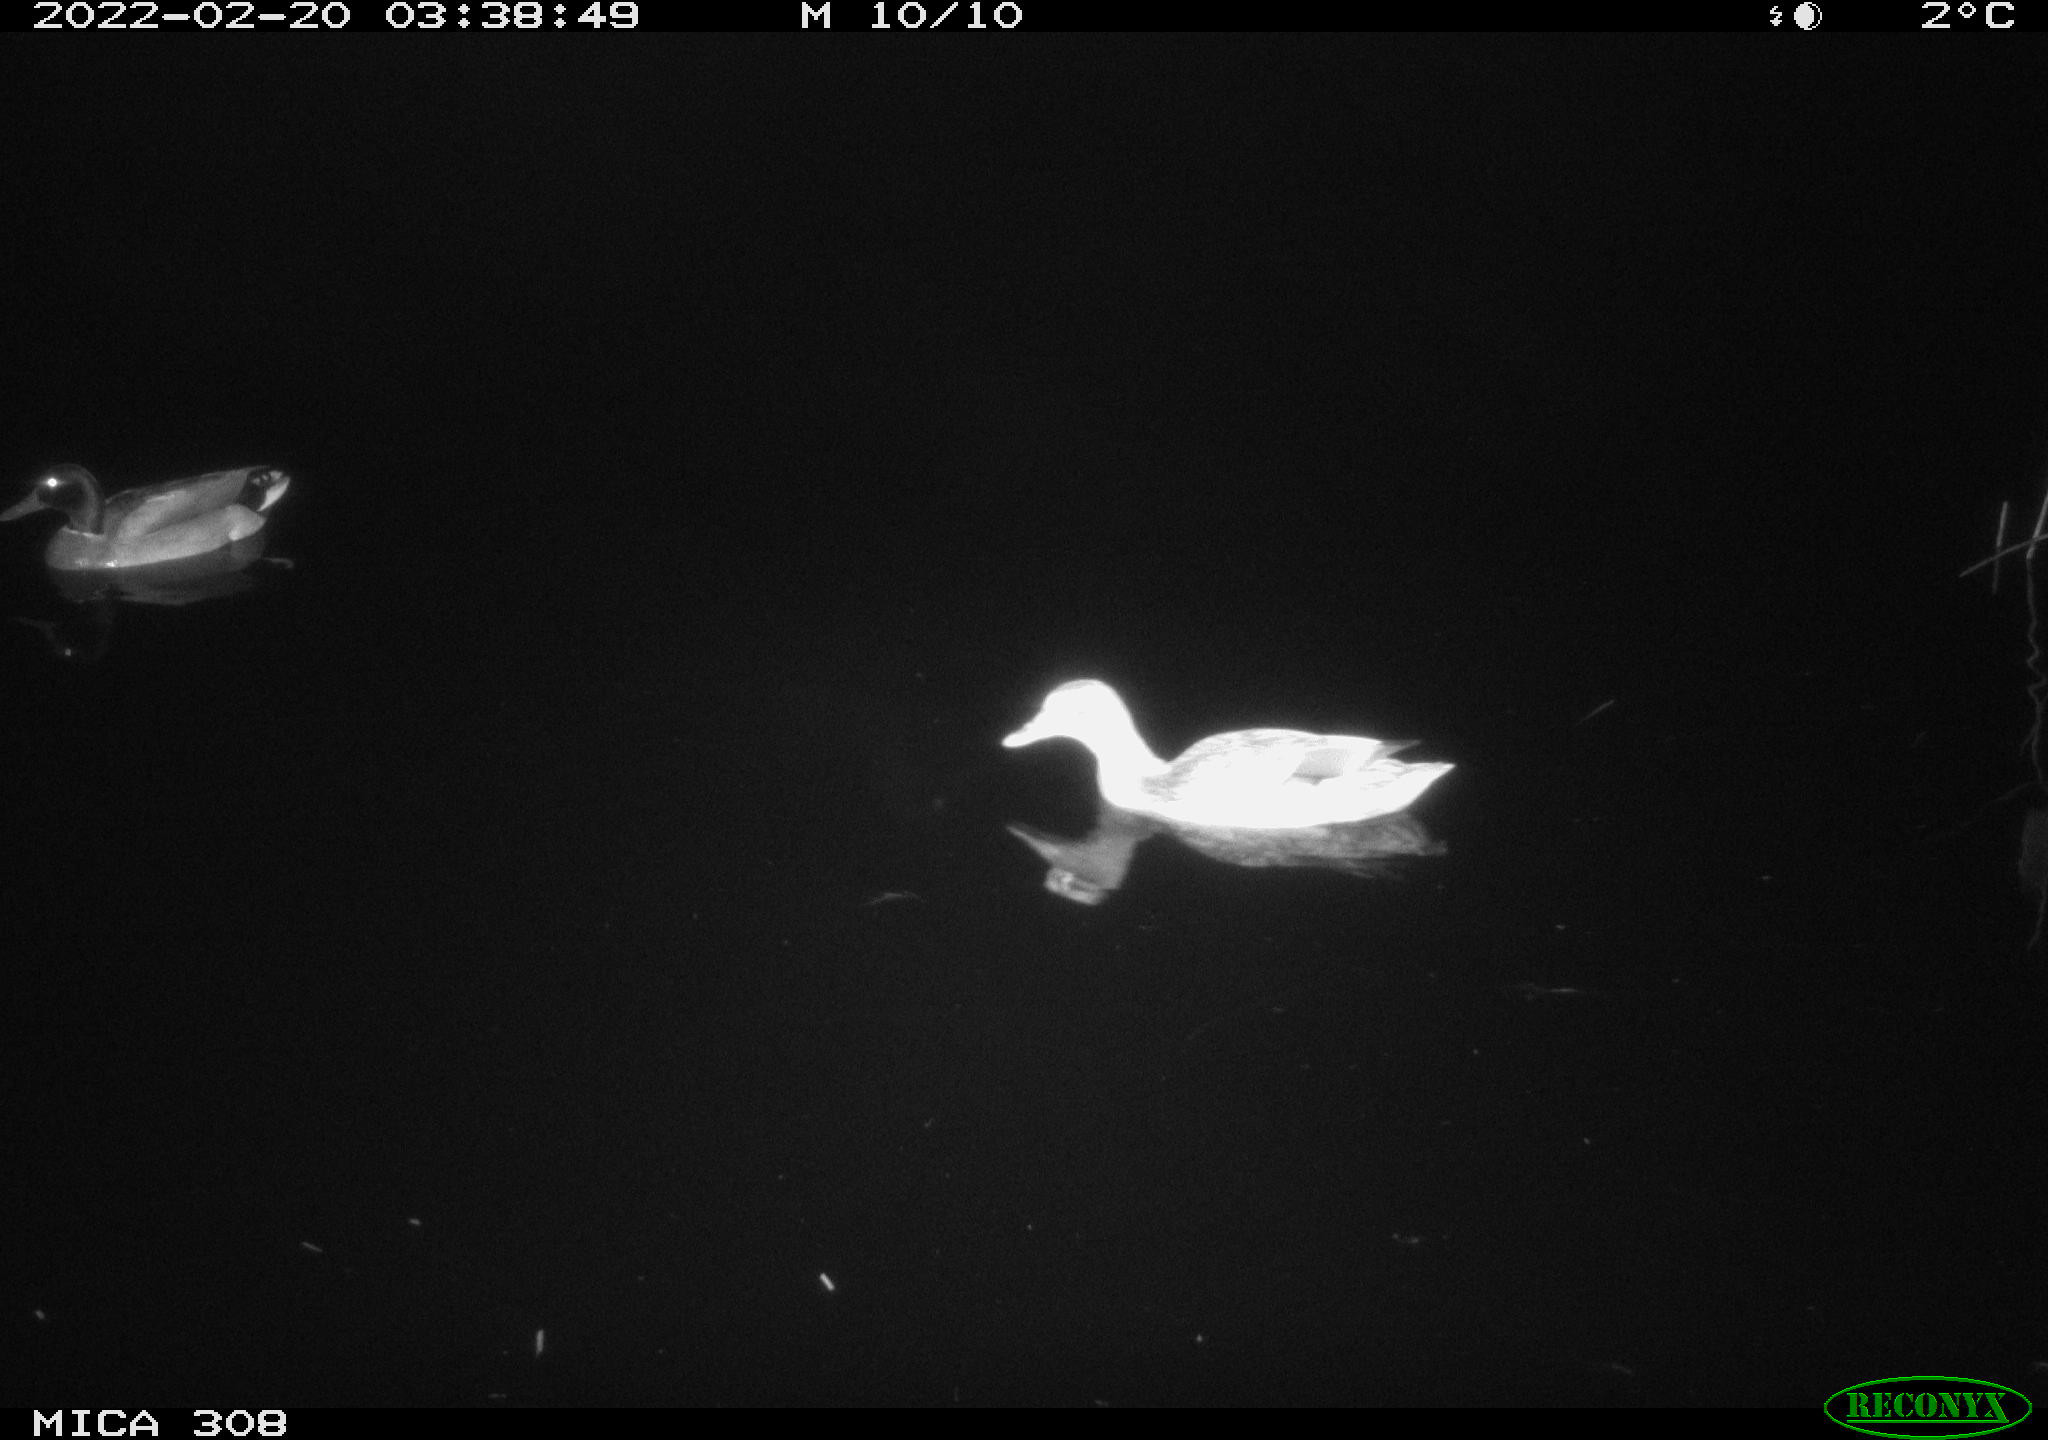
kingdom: Animalia
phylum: Chordata
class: Aves
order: Anseriformes
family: Anatidae
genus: Anas
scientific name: Anas platyrhynchos
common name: Mallard
